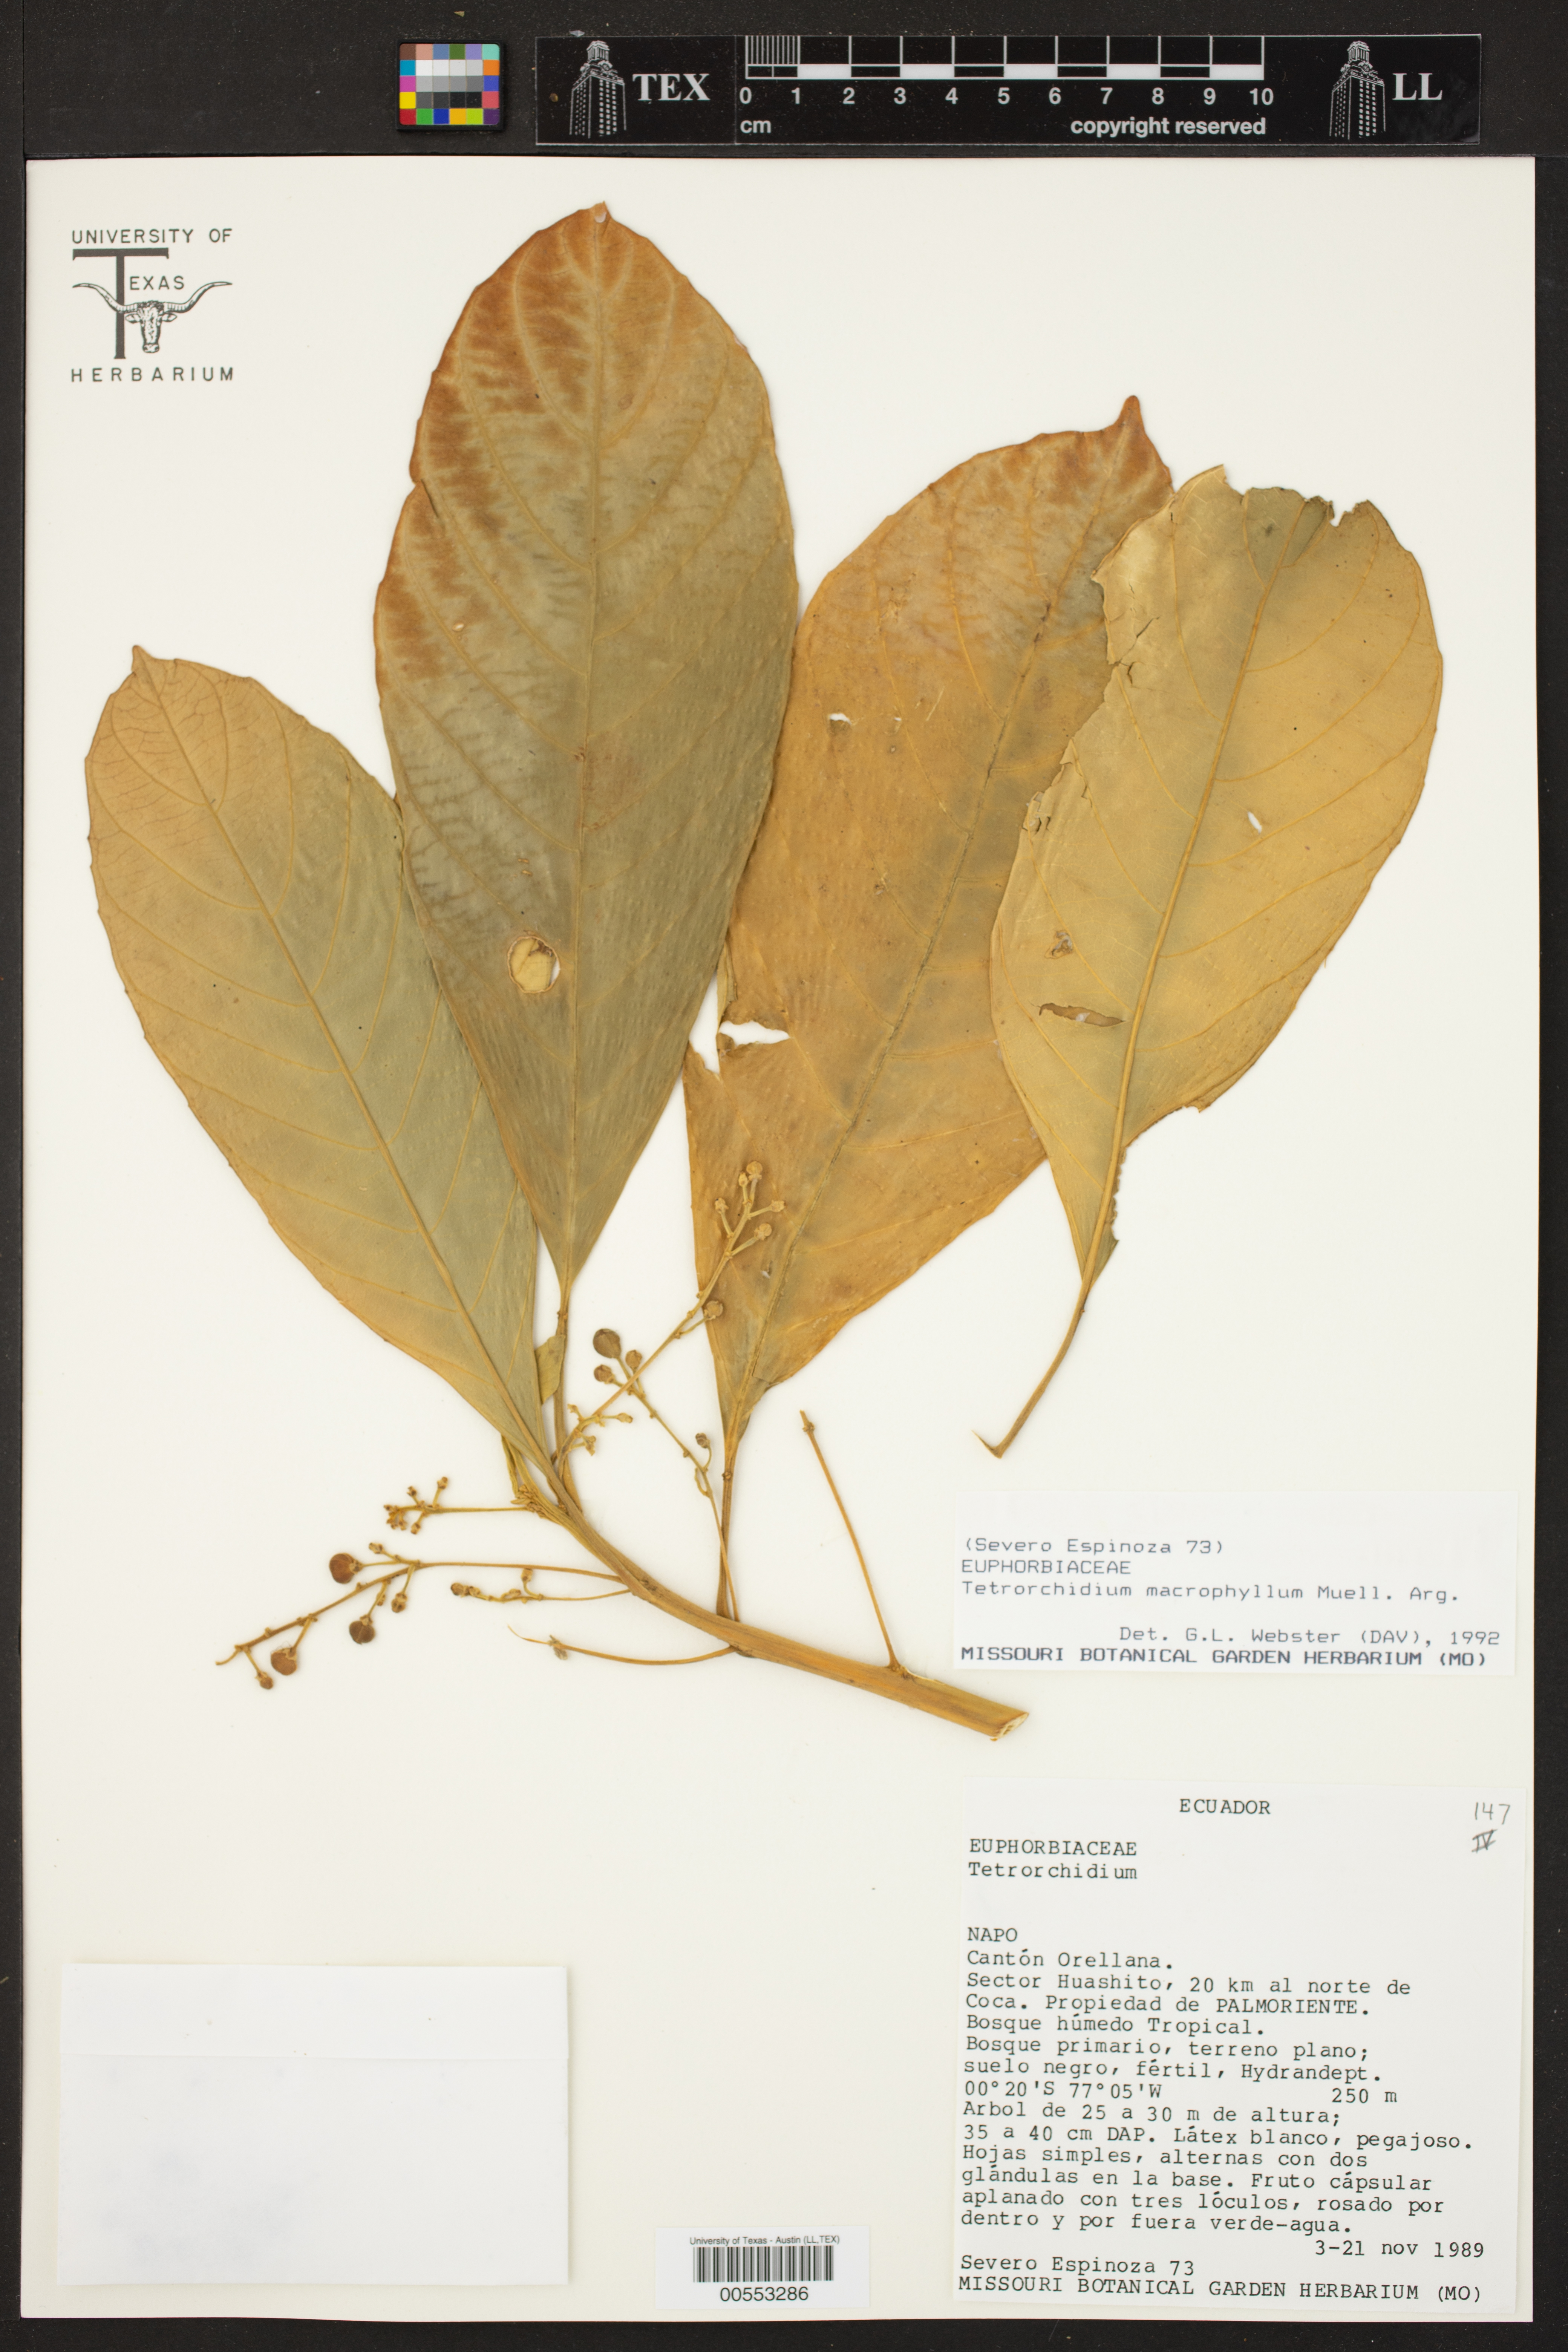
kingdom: Plantae
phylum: Tracheophyta
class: Magnoliopsida
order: Malpighiales
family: Euphorbiaceae
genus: Tetrorchidium
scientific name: Tetrorchidium macrophyllum
